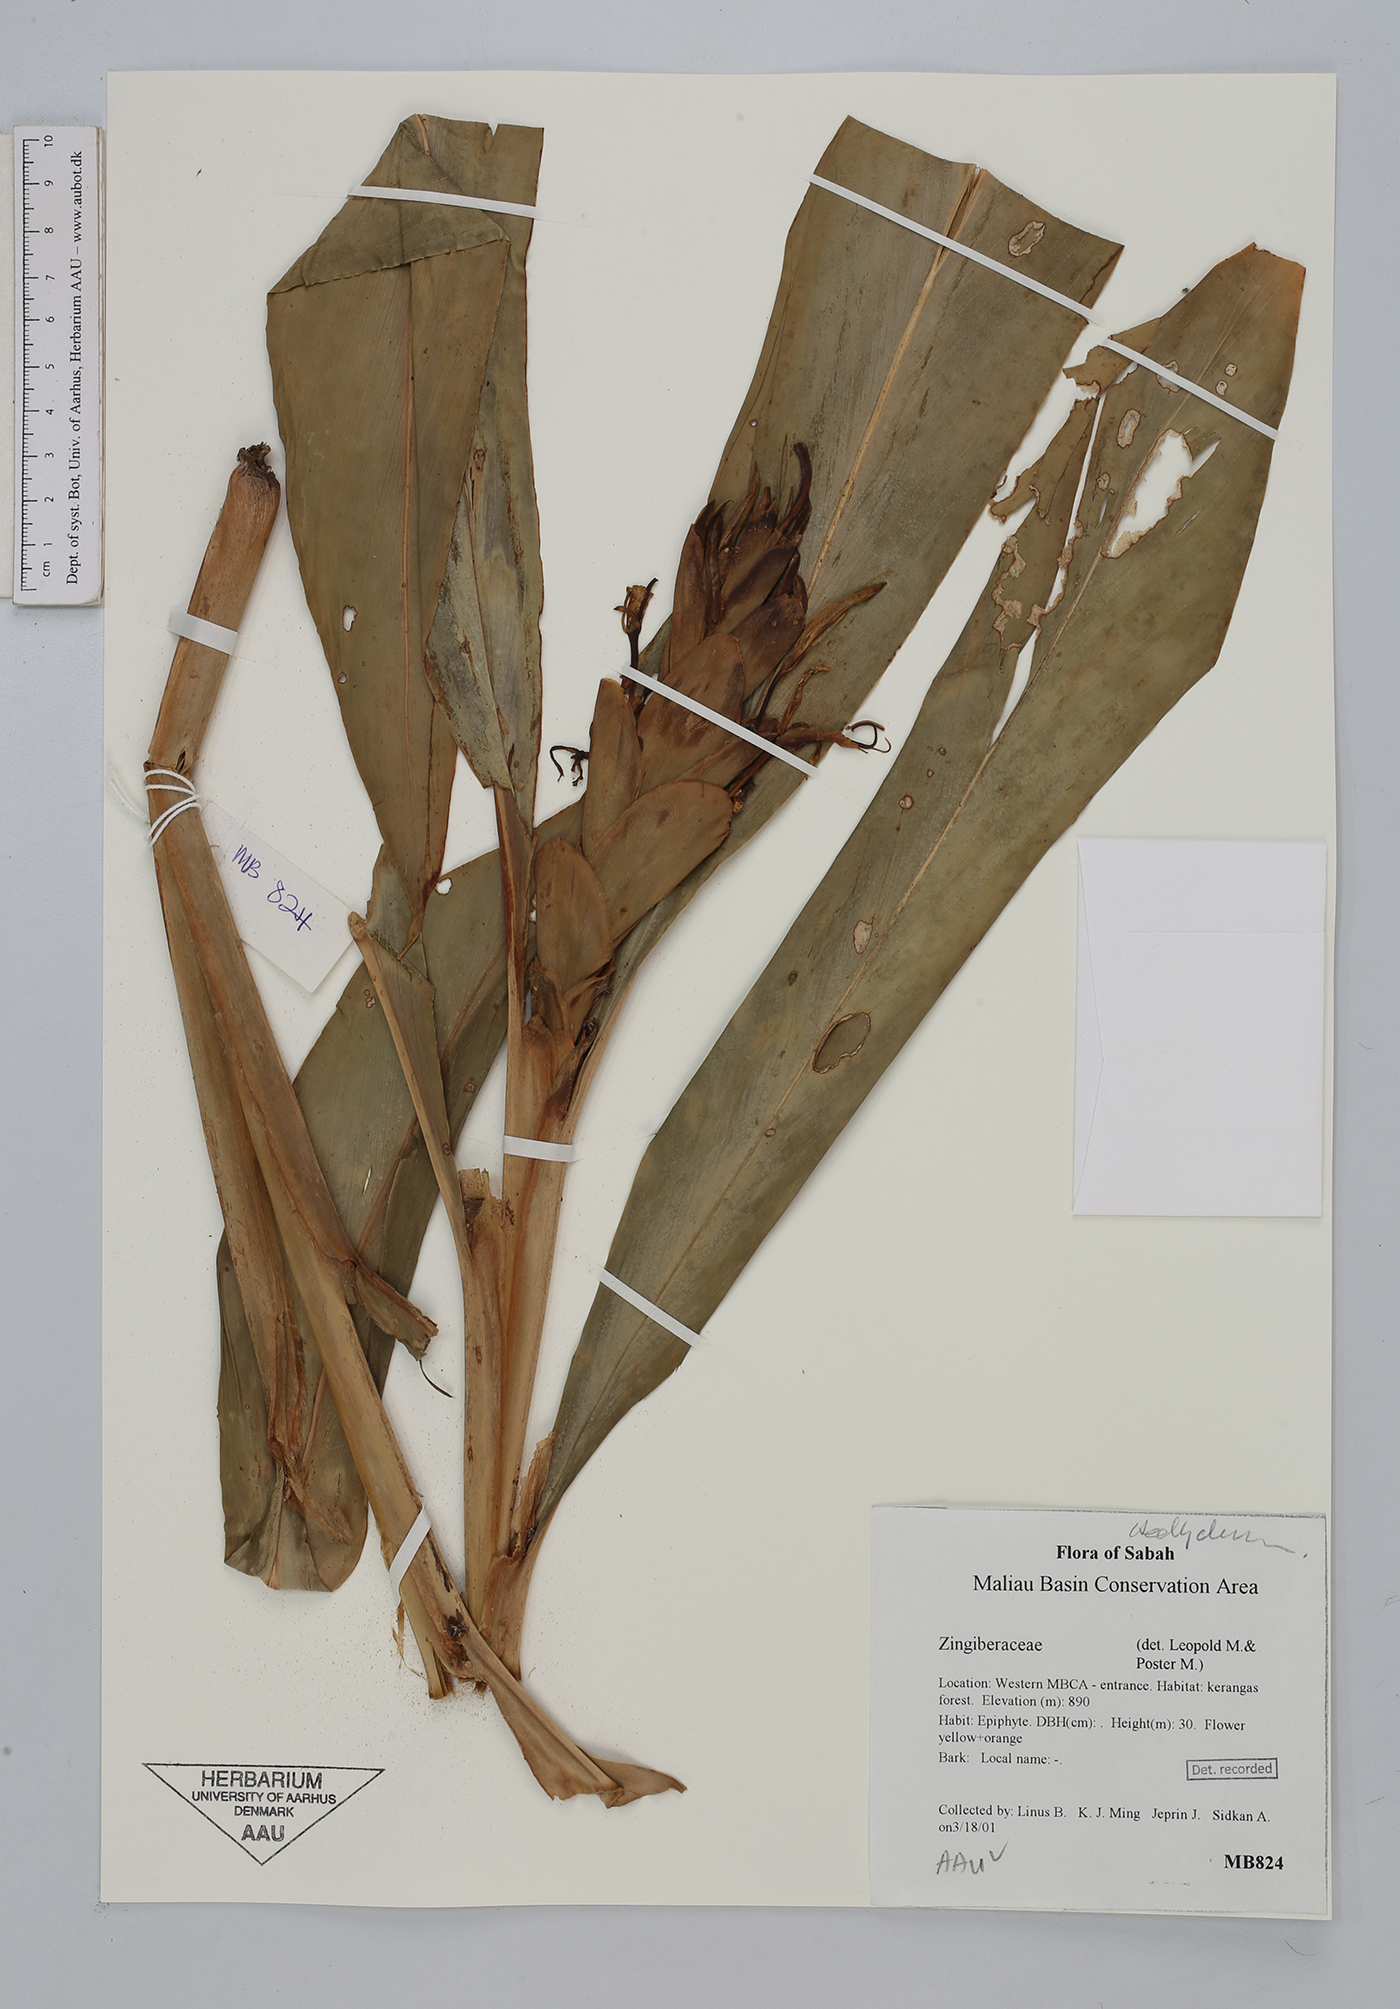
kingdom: Plantae
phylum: Tracheophyta
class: Liliopsida
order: Zingiberales
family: Zingiberaceae
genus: Hedychium
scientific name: Hedychium
